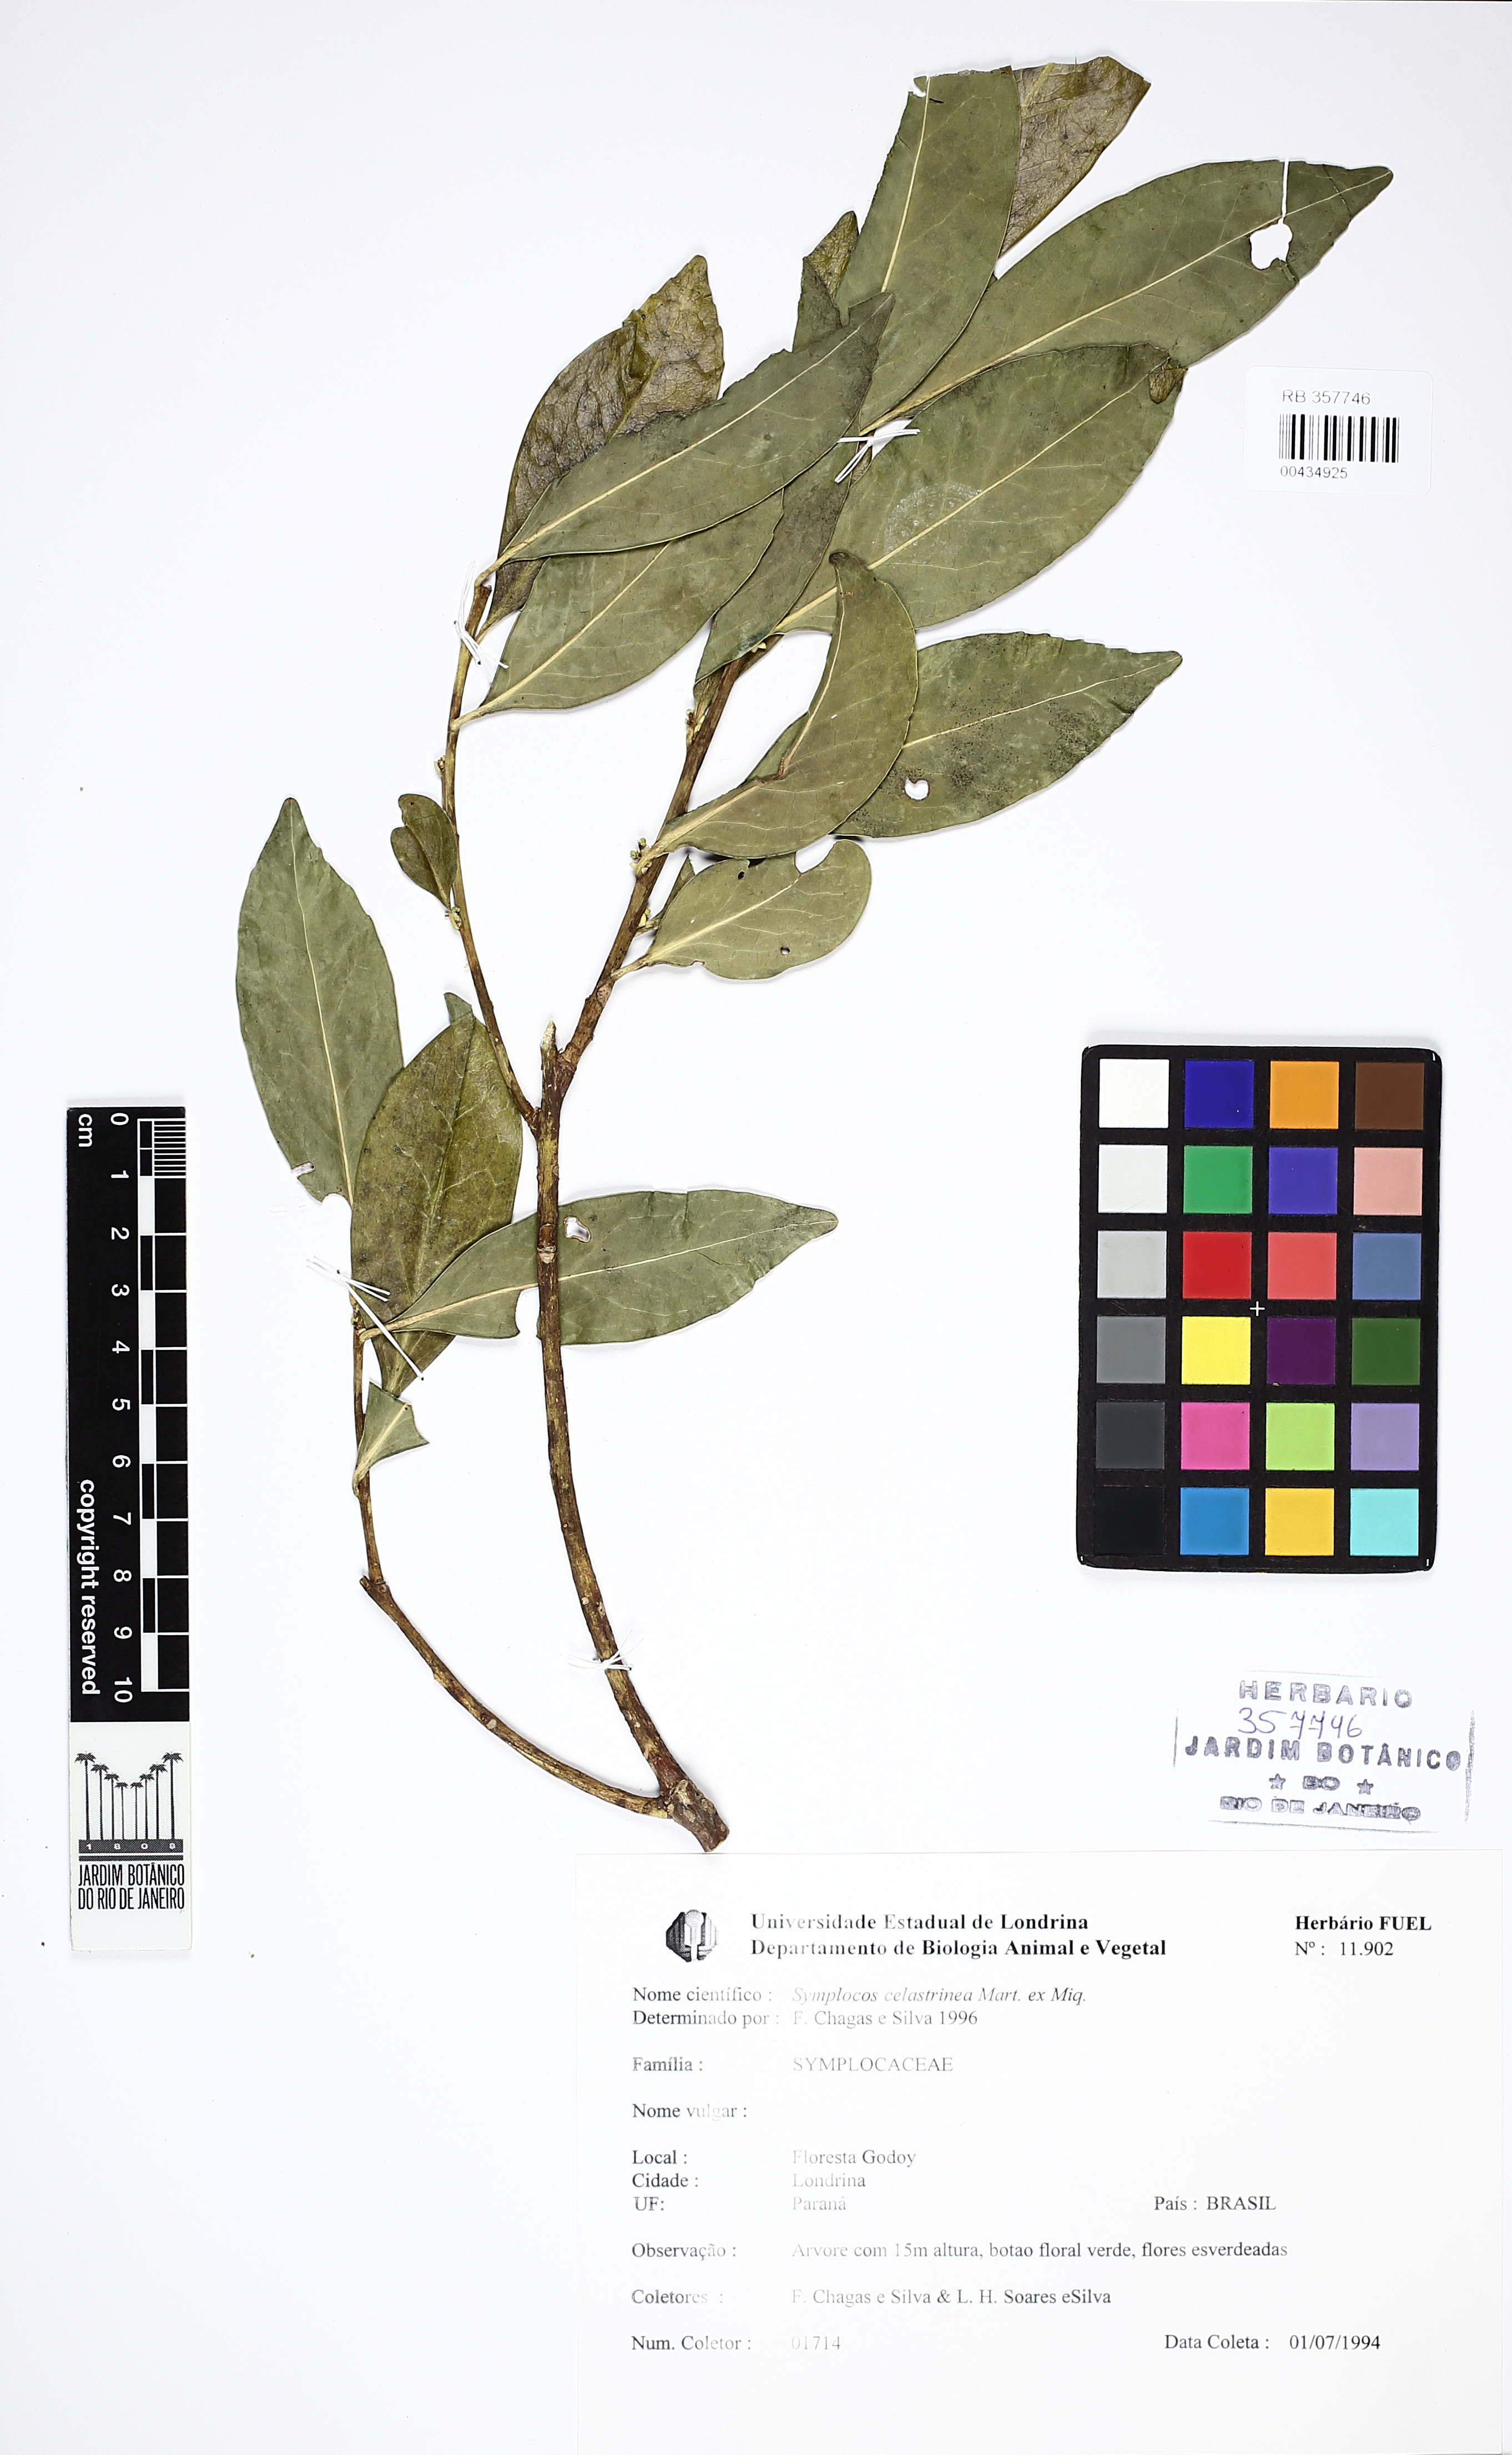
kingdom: Plantae
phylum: Tracheophyta
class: Magnoliopsida
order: Ericales
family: Symplocaceae
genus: Symplocos
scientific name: Symplocos celastrinea
